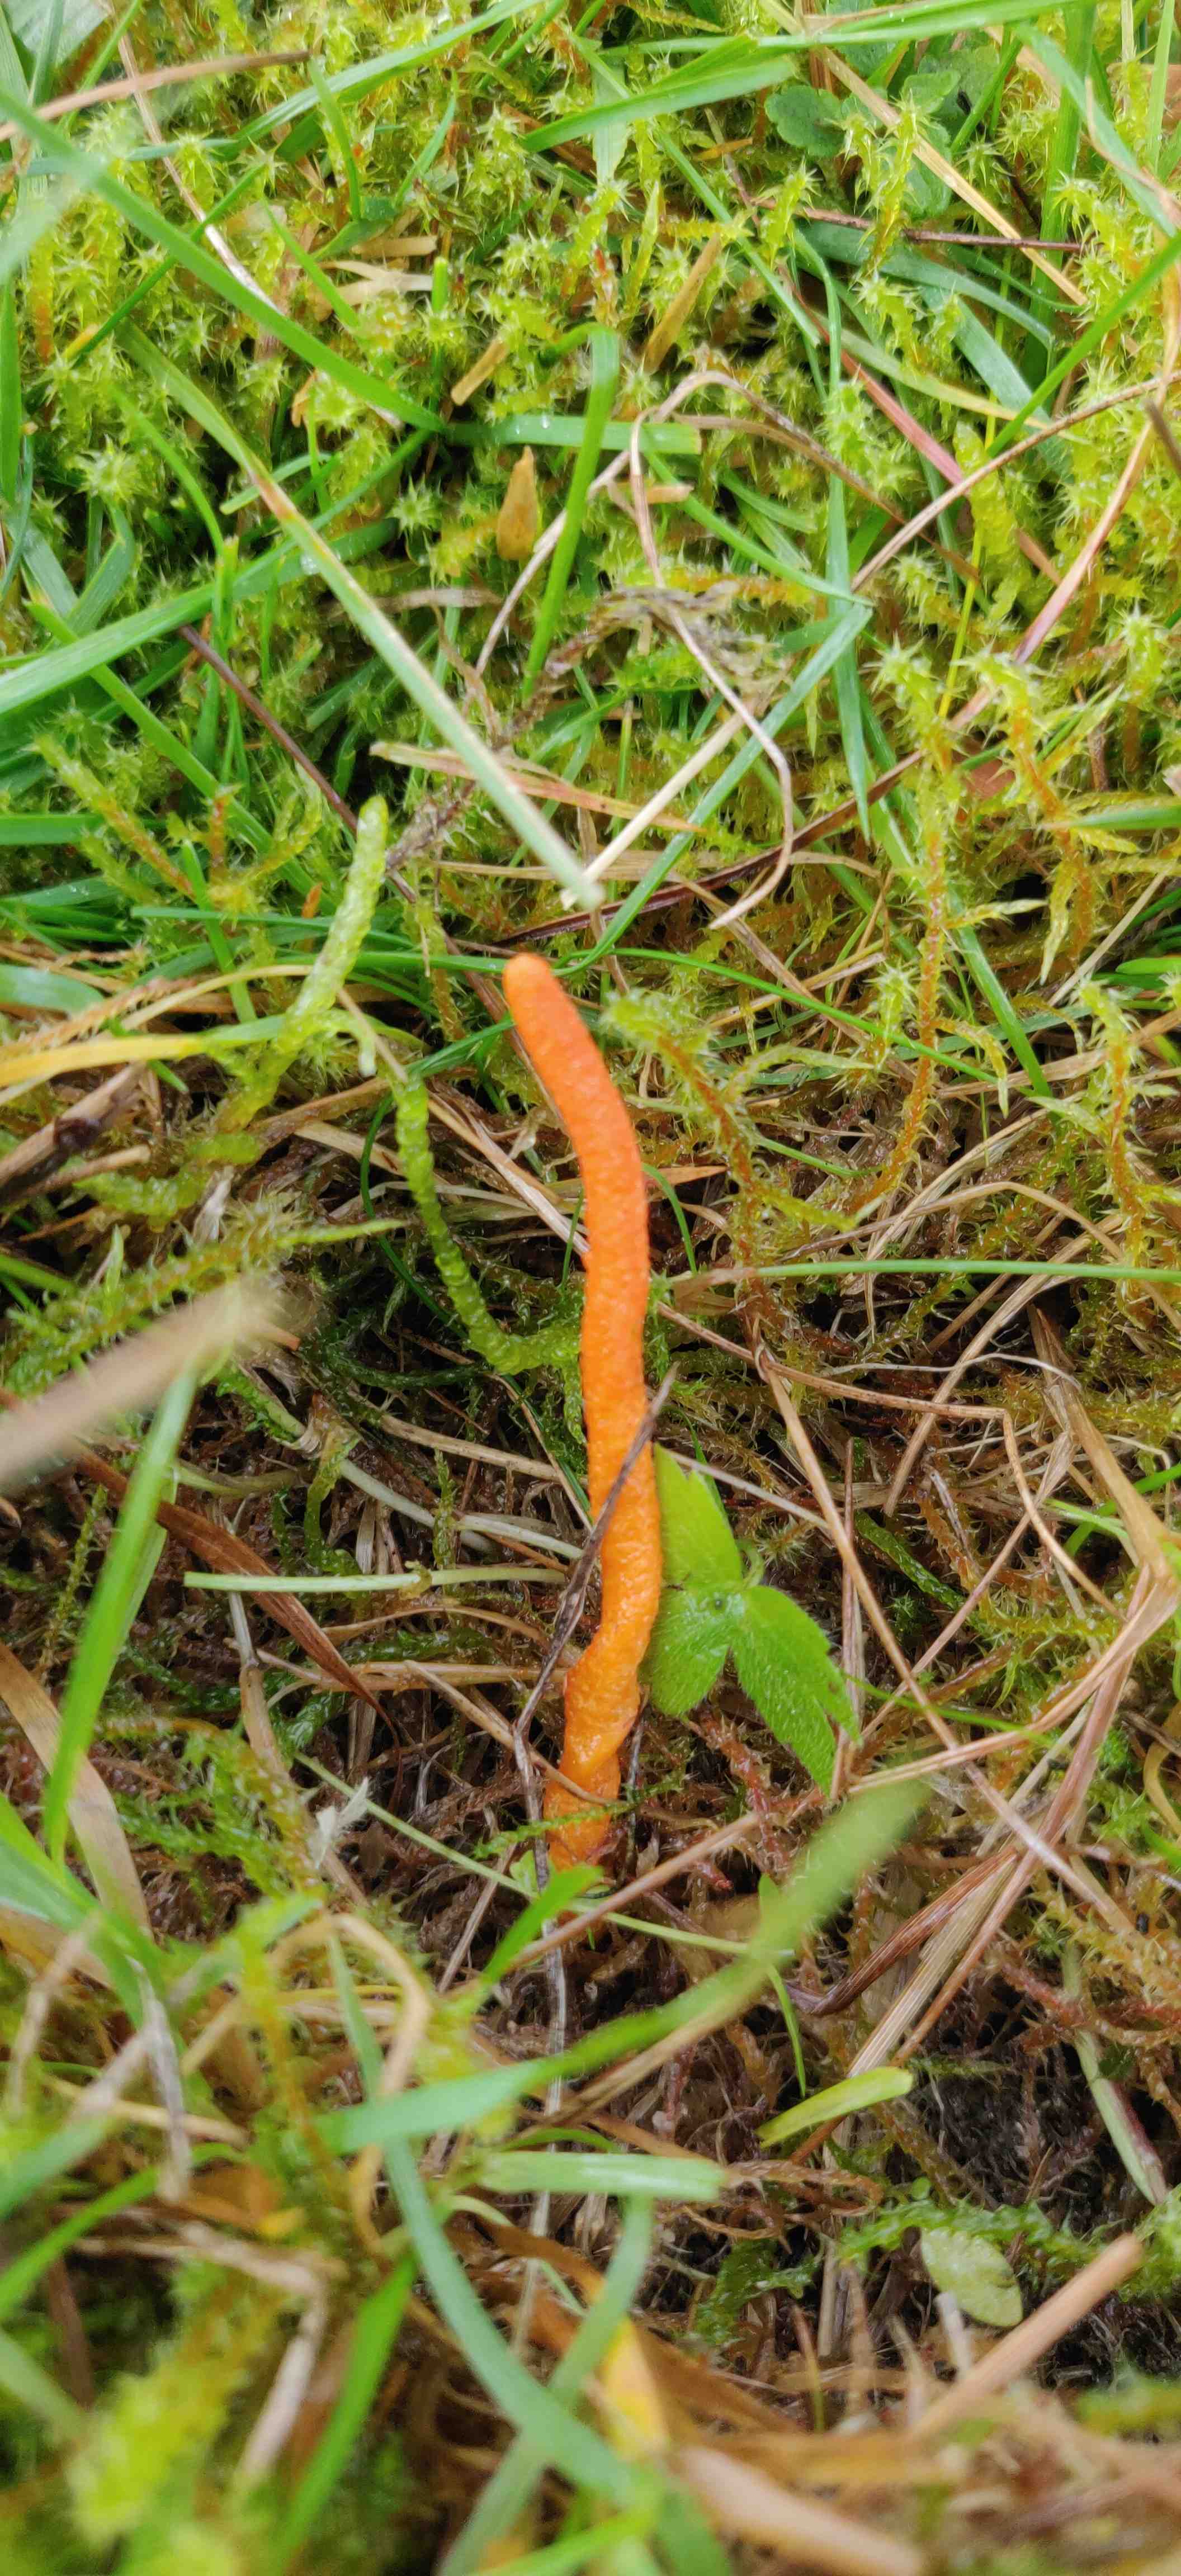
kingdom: Fungi
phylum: Ascomycota
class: Sordariomycetes
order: Hypocreales
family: Cordycipitaceae
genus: Cordyceps
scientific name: Cordyceps militaris
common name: puppe-snyltekølle
